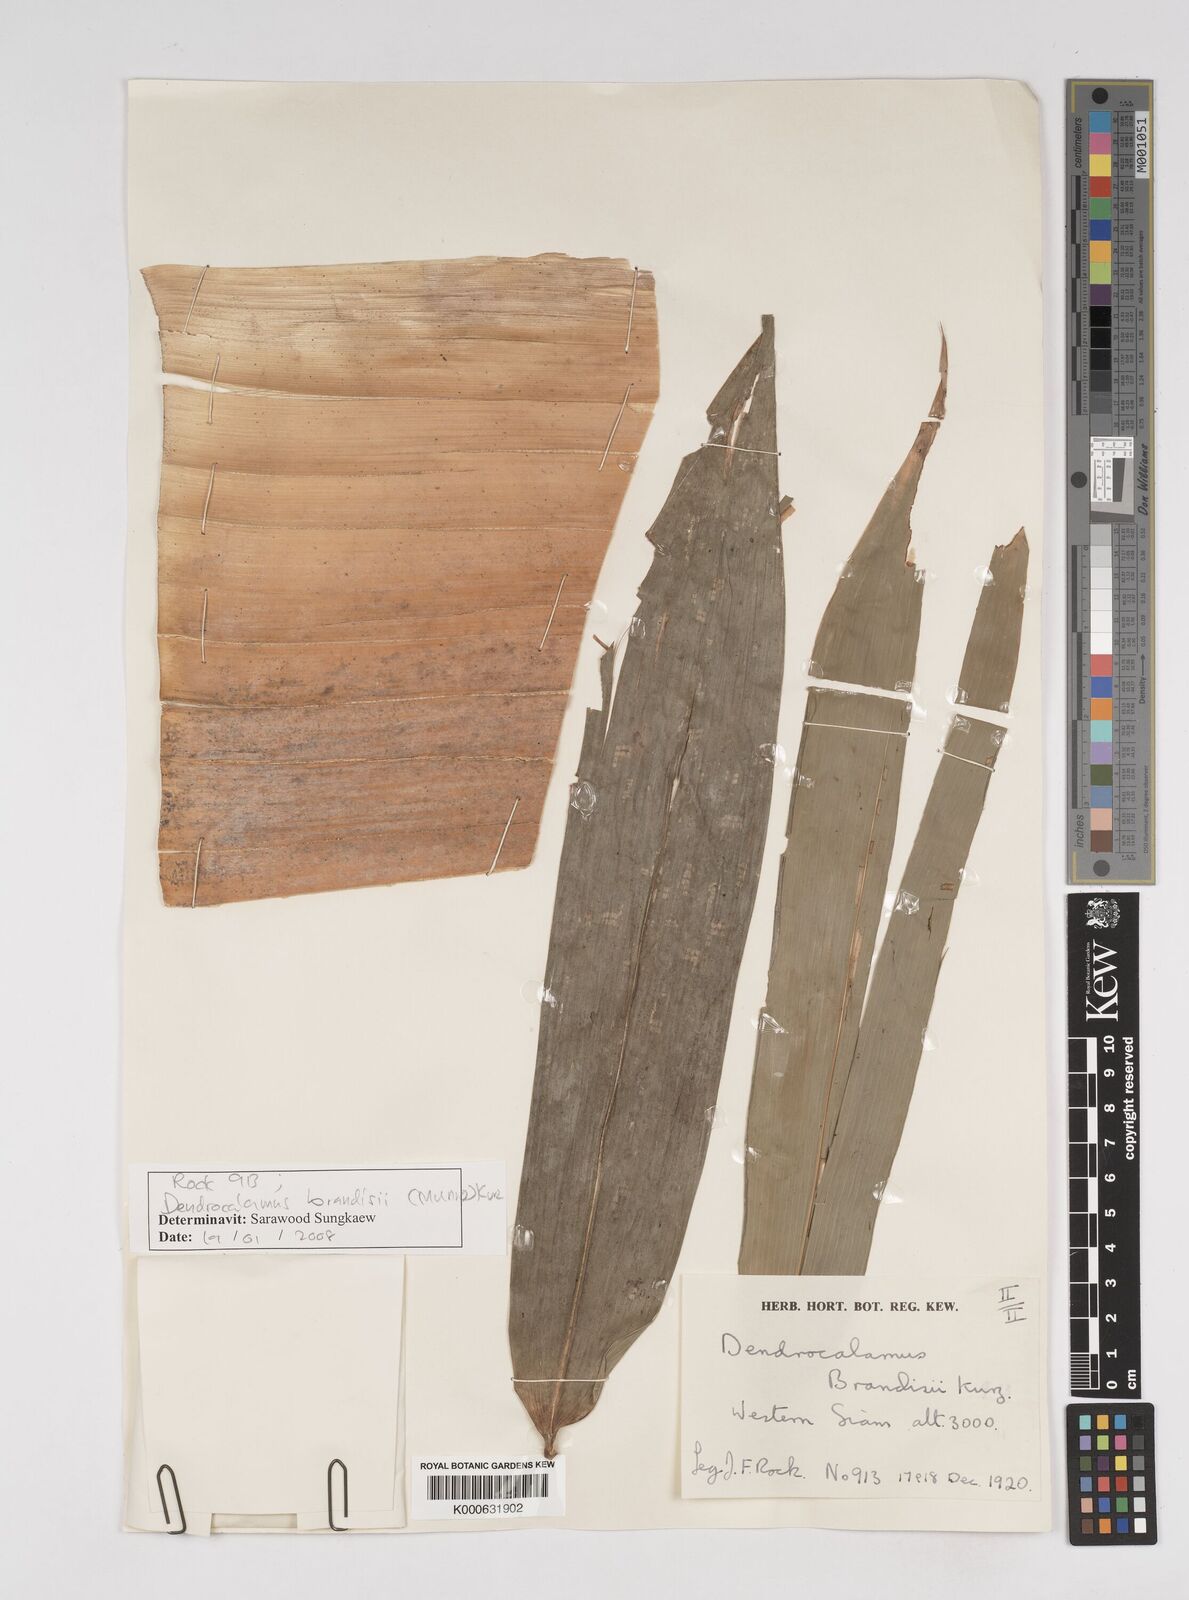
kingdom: Plantae
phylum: Tracheophyta
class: Liliopsida
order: Poales
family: Poaceae
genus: Dendrocalamus
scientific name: Dendrocalamus brandisii
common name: Velvetleaf bamboo
